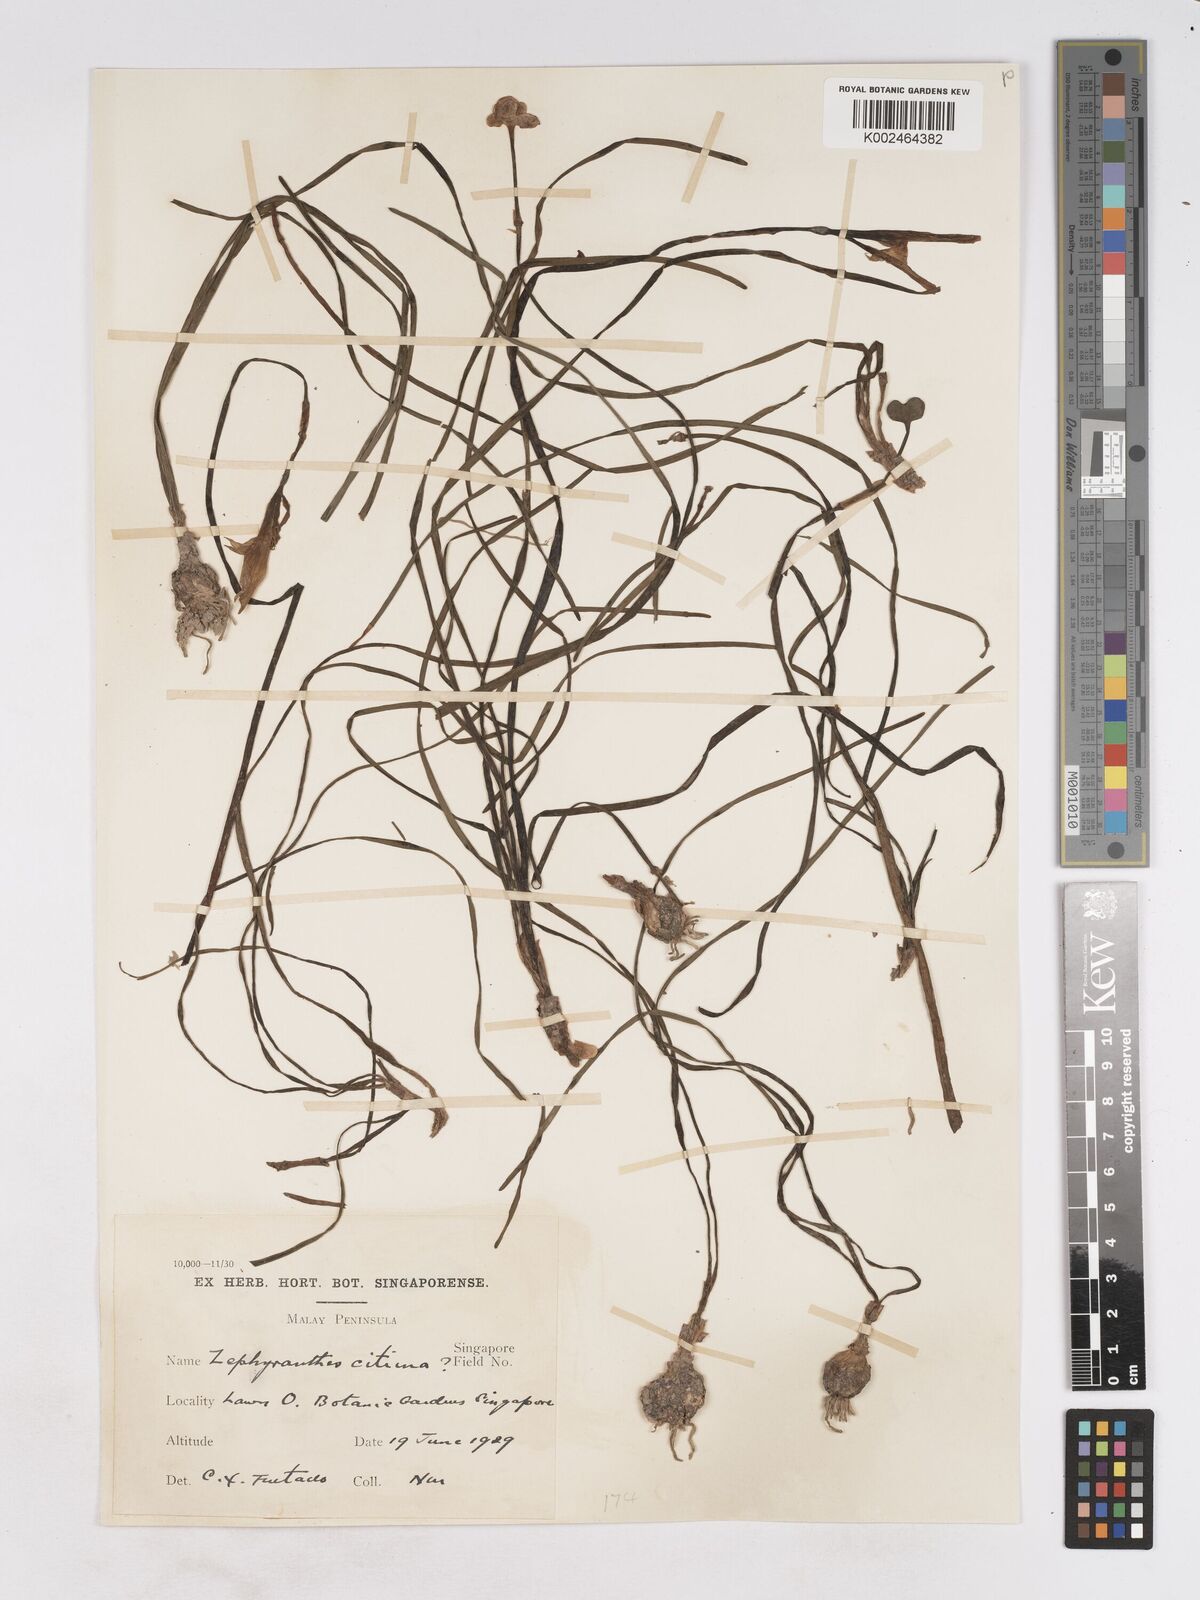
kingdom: Plantae
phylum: Tracheophyta
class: Liliopsida
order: Asparagales
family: Amaryllidaceae
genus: Zephyranthes
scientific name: Zephyranthes citrina
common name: Citron zephyrlily
